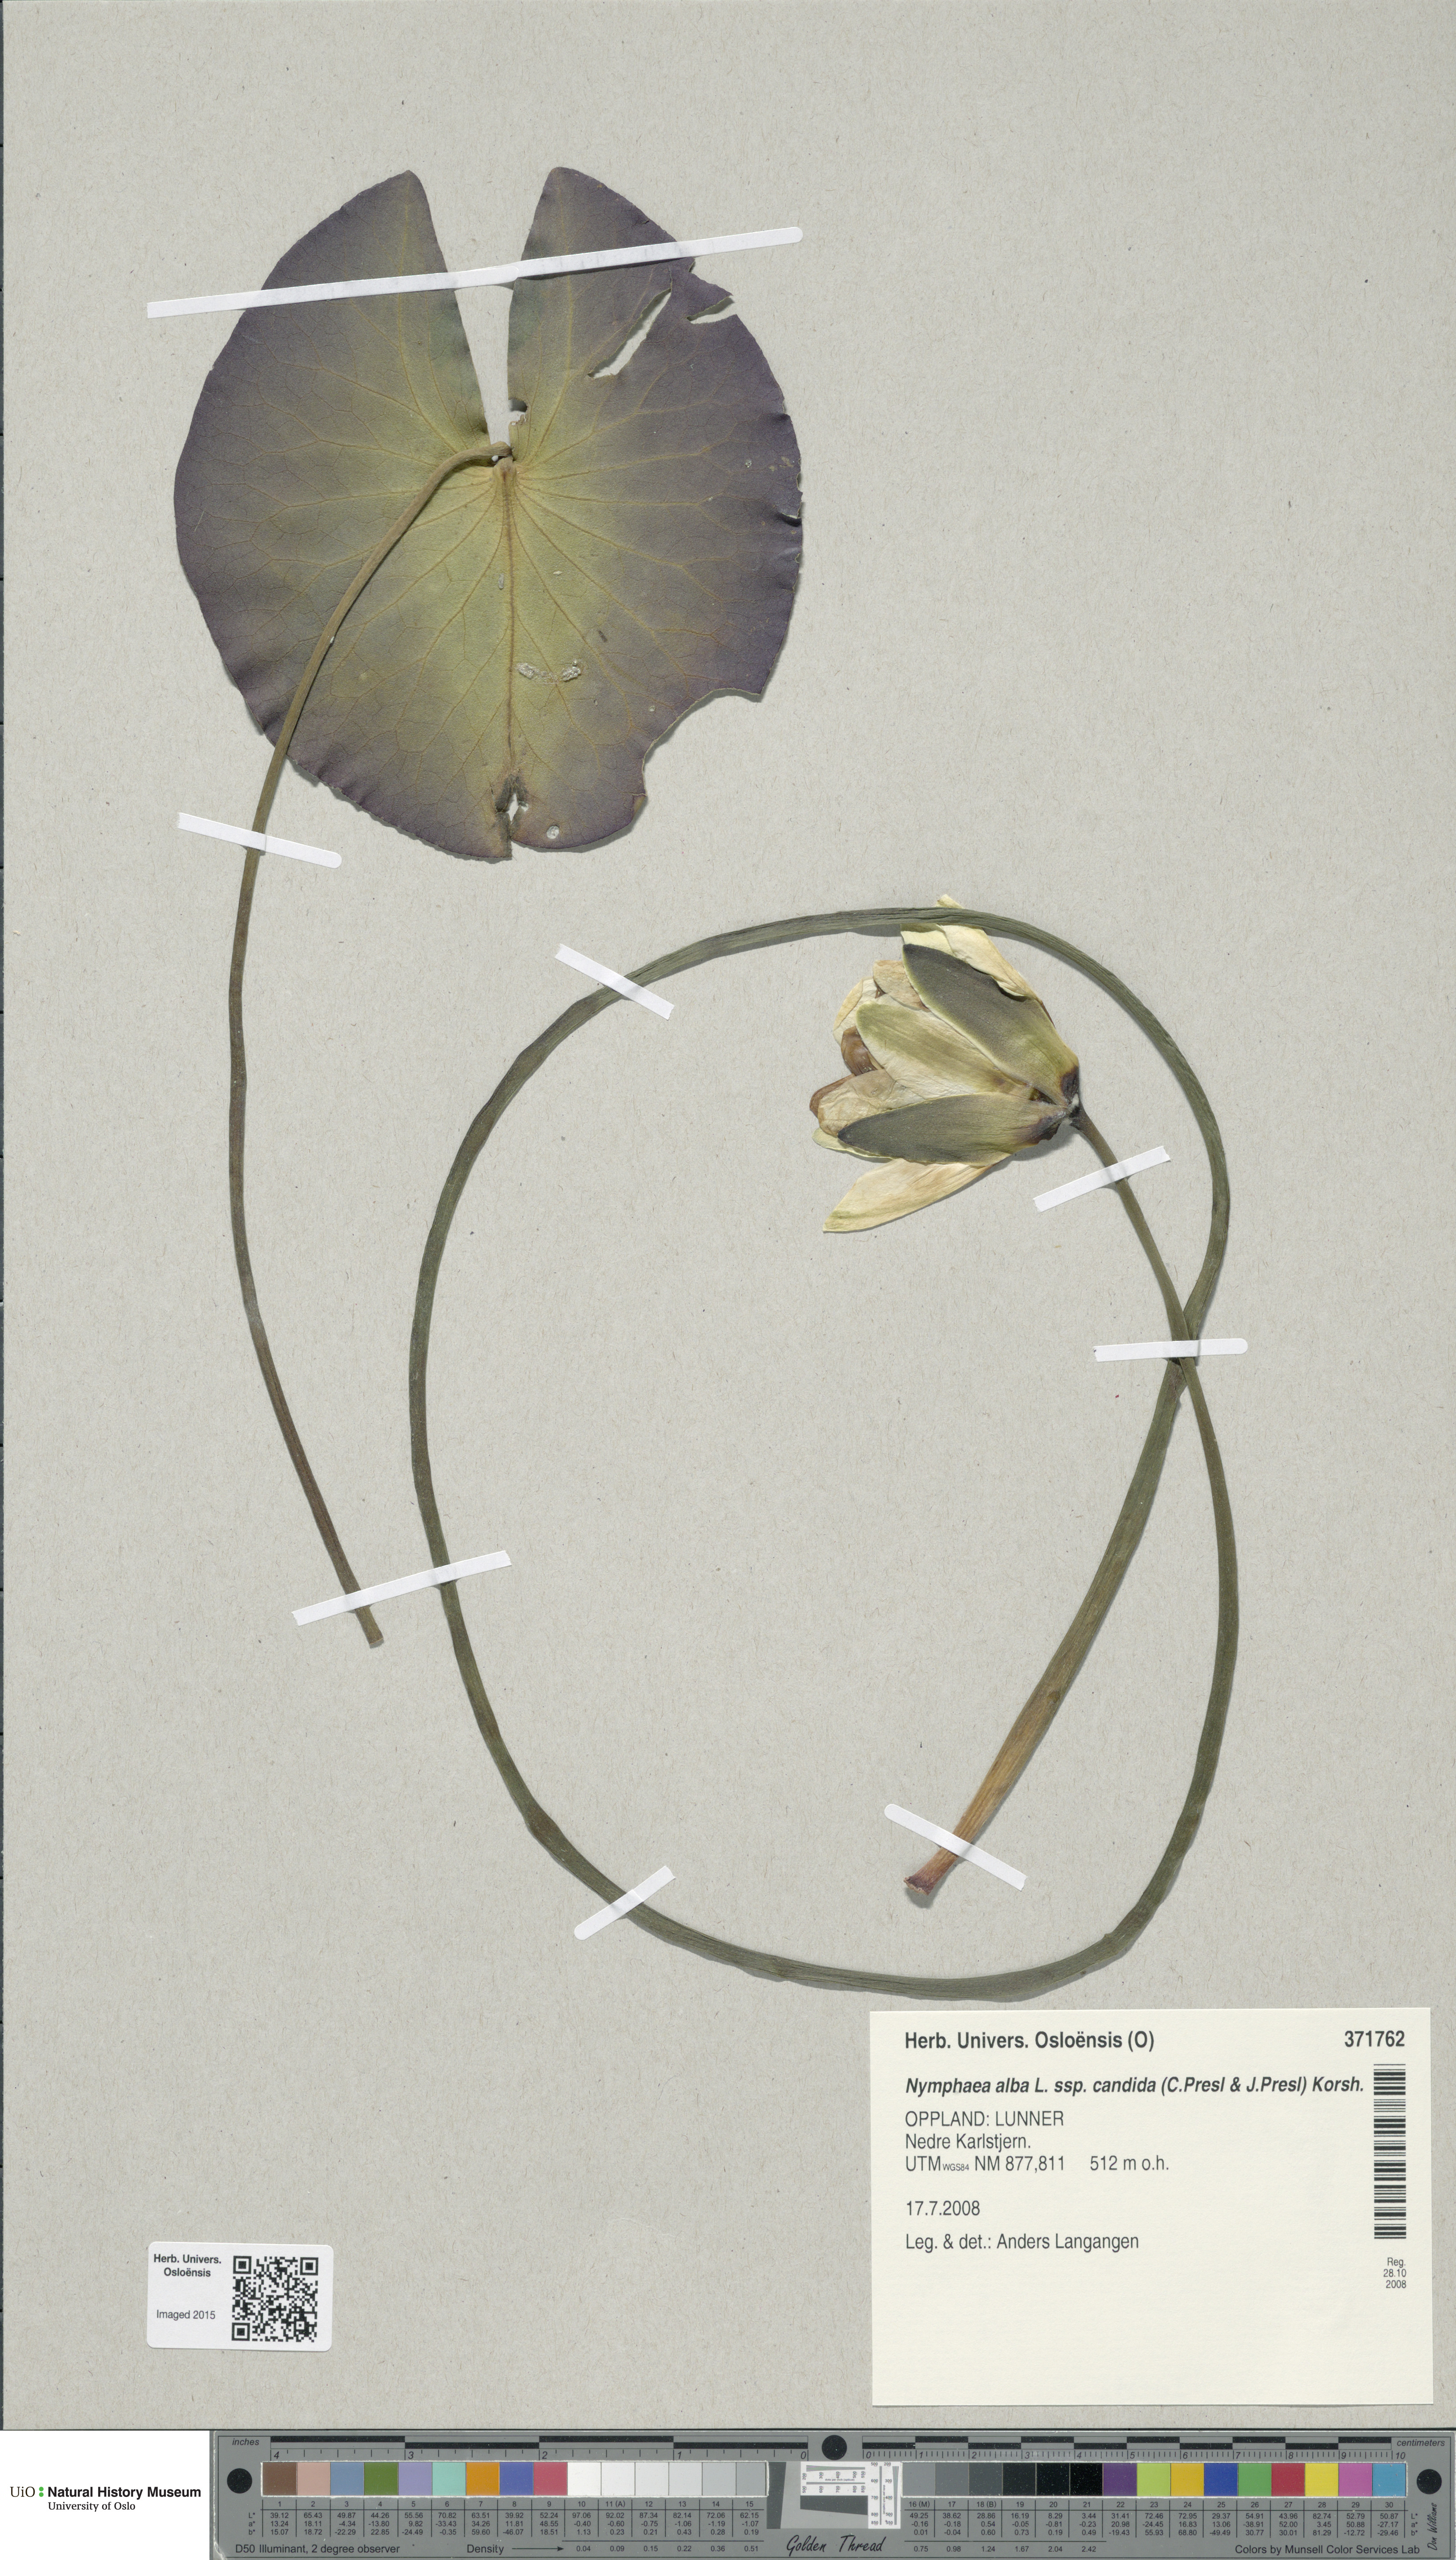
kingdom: Plantae
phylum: Tracheophyta
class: Magnoliopsida
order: Nymphaeales
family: Nymphaeaceae
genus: Nymphaea
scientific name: Nymphaea candida
